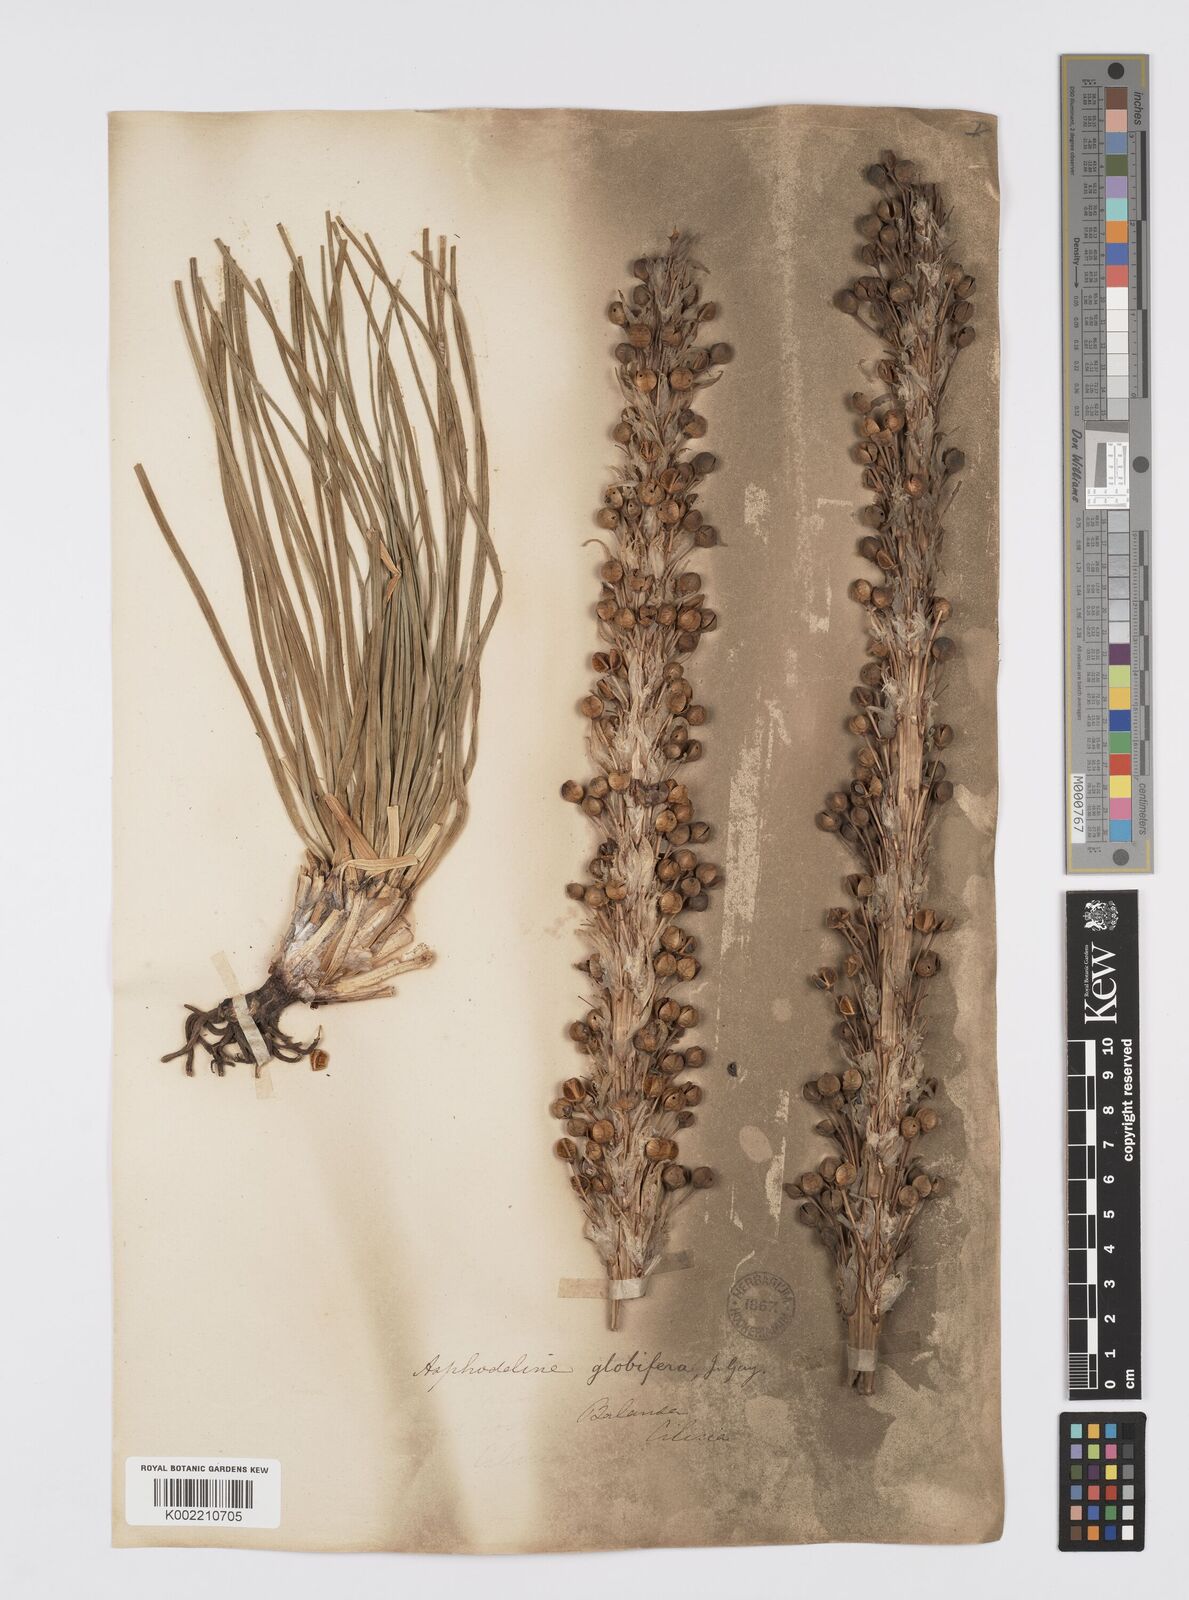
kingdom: Plantae
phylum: Tracheophyta
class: Liliopsida
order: Asparagales
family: Asphodelaceae
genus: Asphodeline
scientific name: Asphodeline globifera
